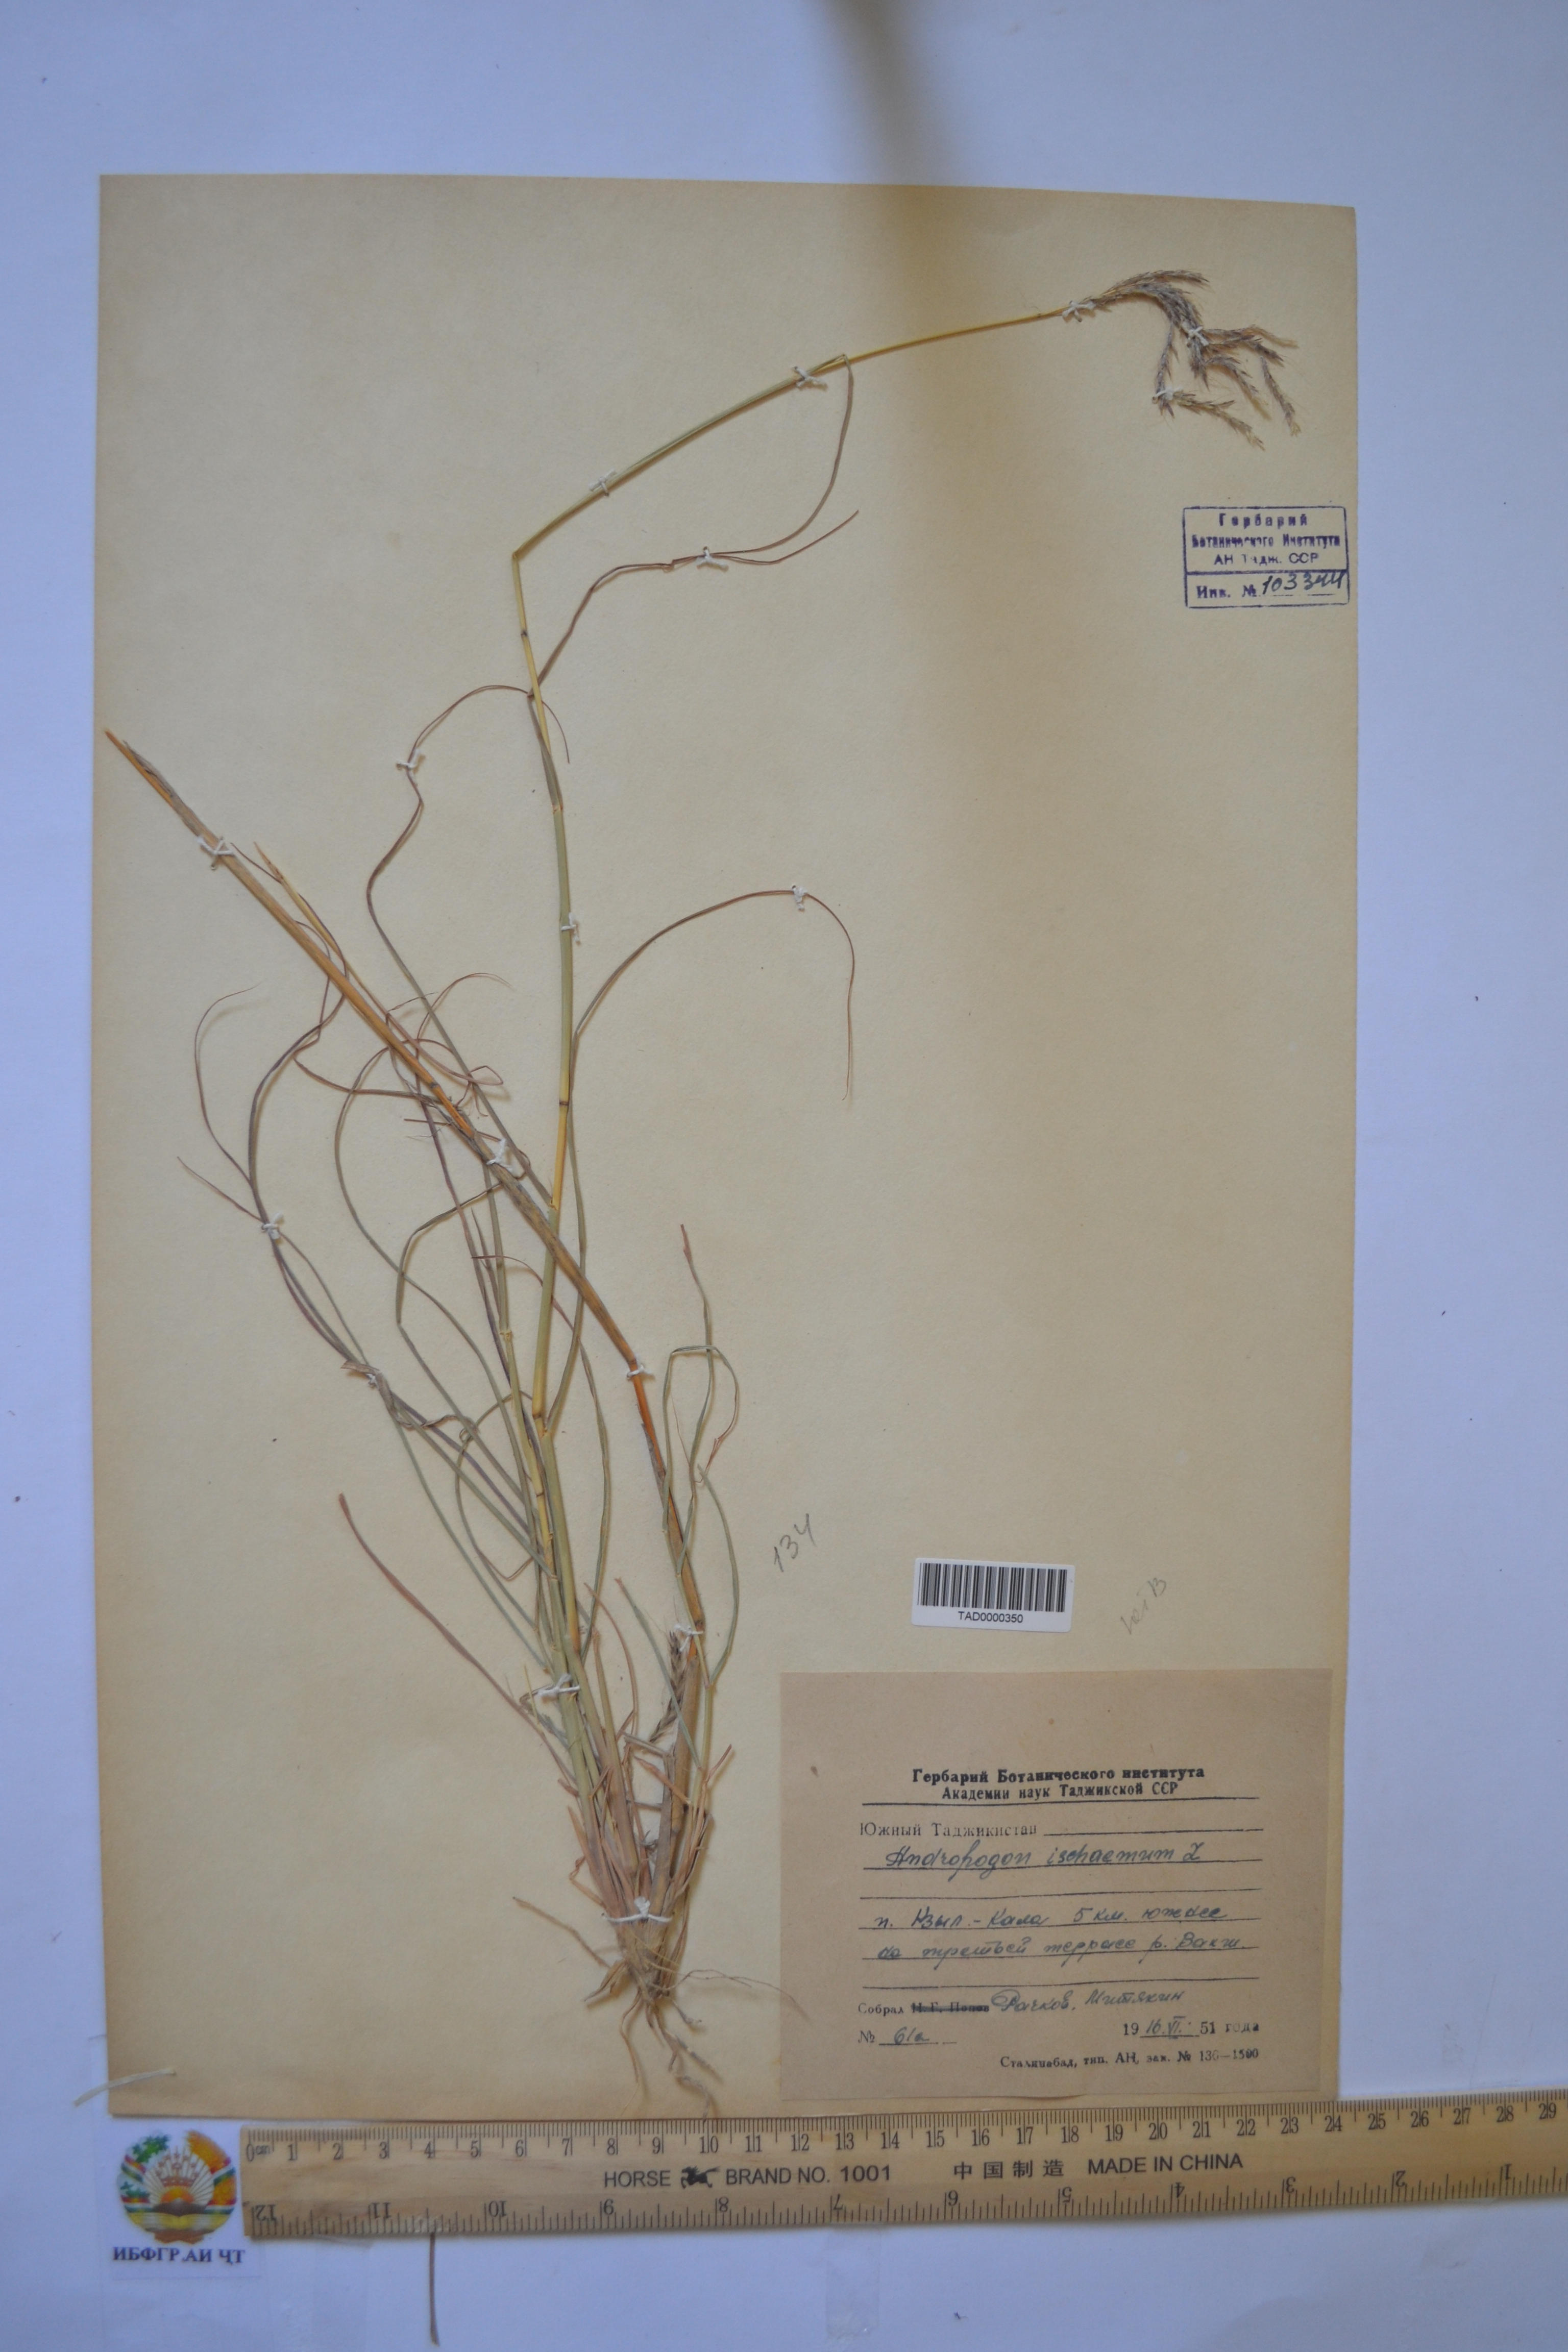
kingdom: Plantae
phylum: Tracheophyta
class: Liliopsida
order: Poales
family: Poaceae
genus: Andropogon
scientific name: Andropogon ischaemum
